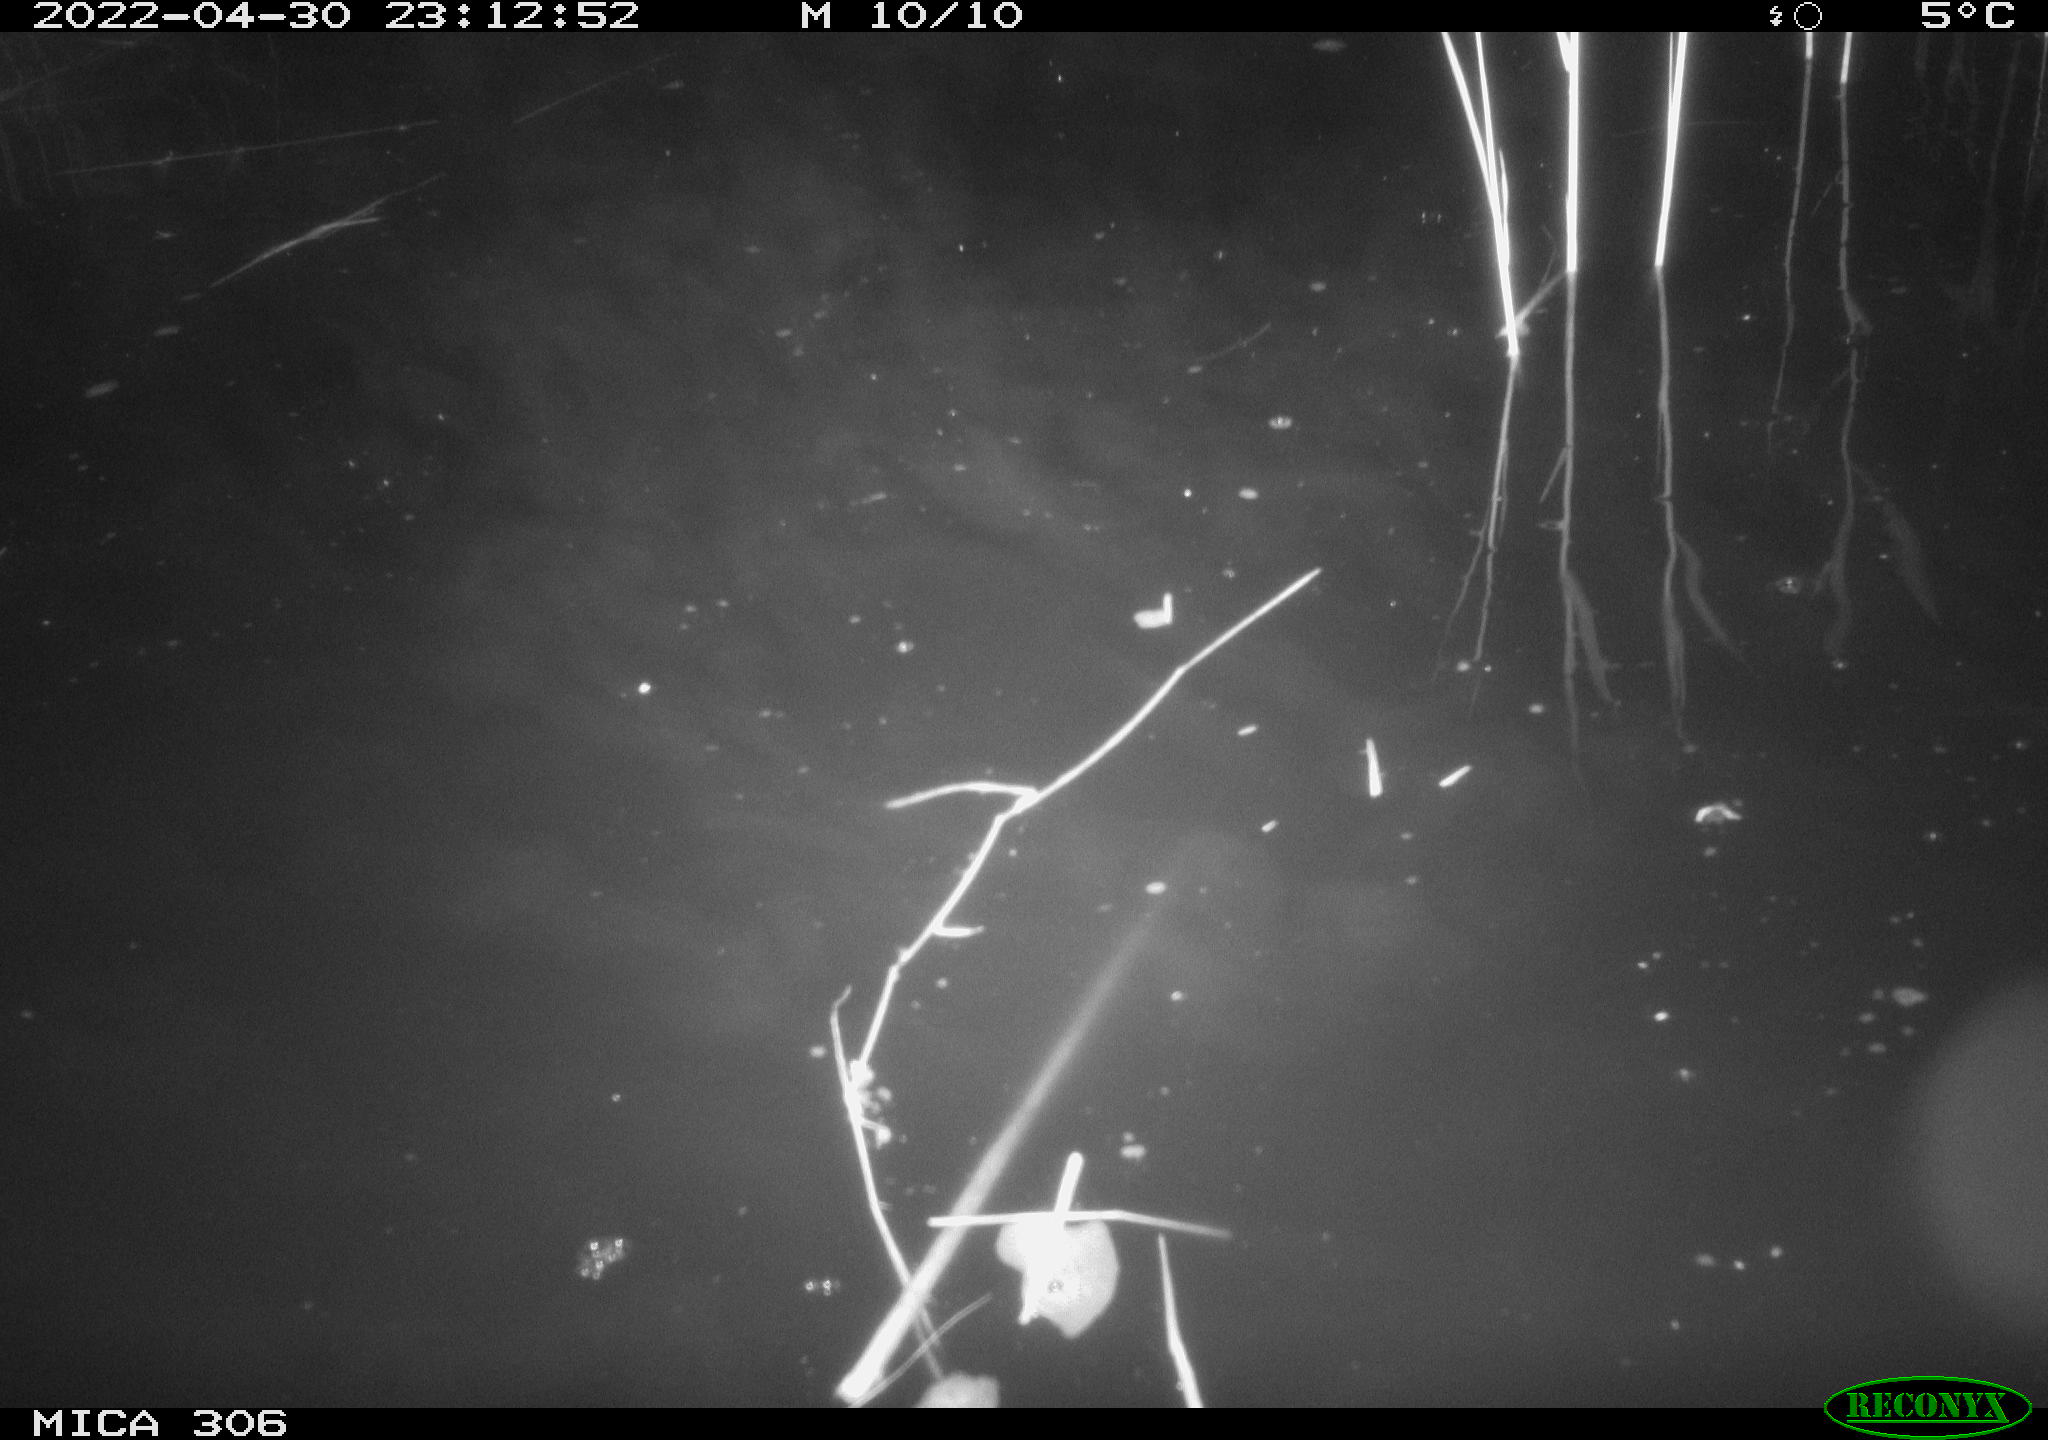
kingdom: Animalia
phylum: Chordata
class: Mammalia
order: Rodentia
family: Cricetidae
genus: Ondatra
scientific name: Ondatra zibethicus
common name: Muskrat
